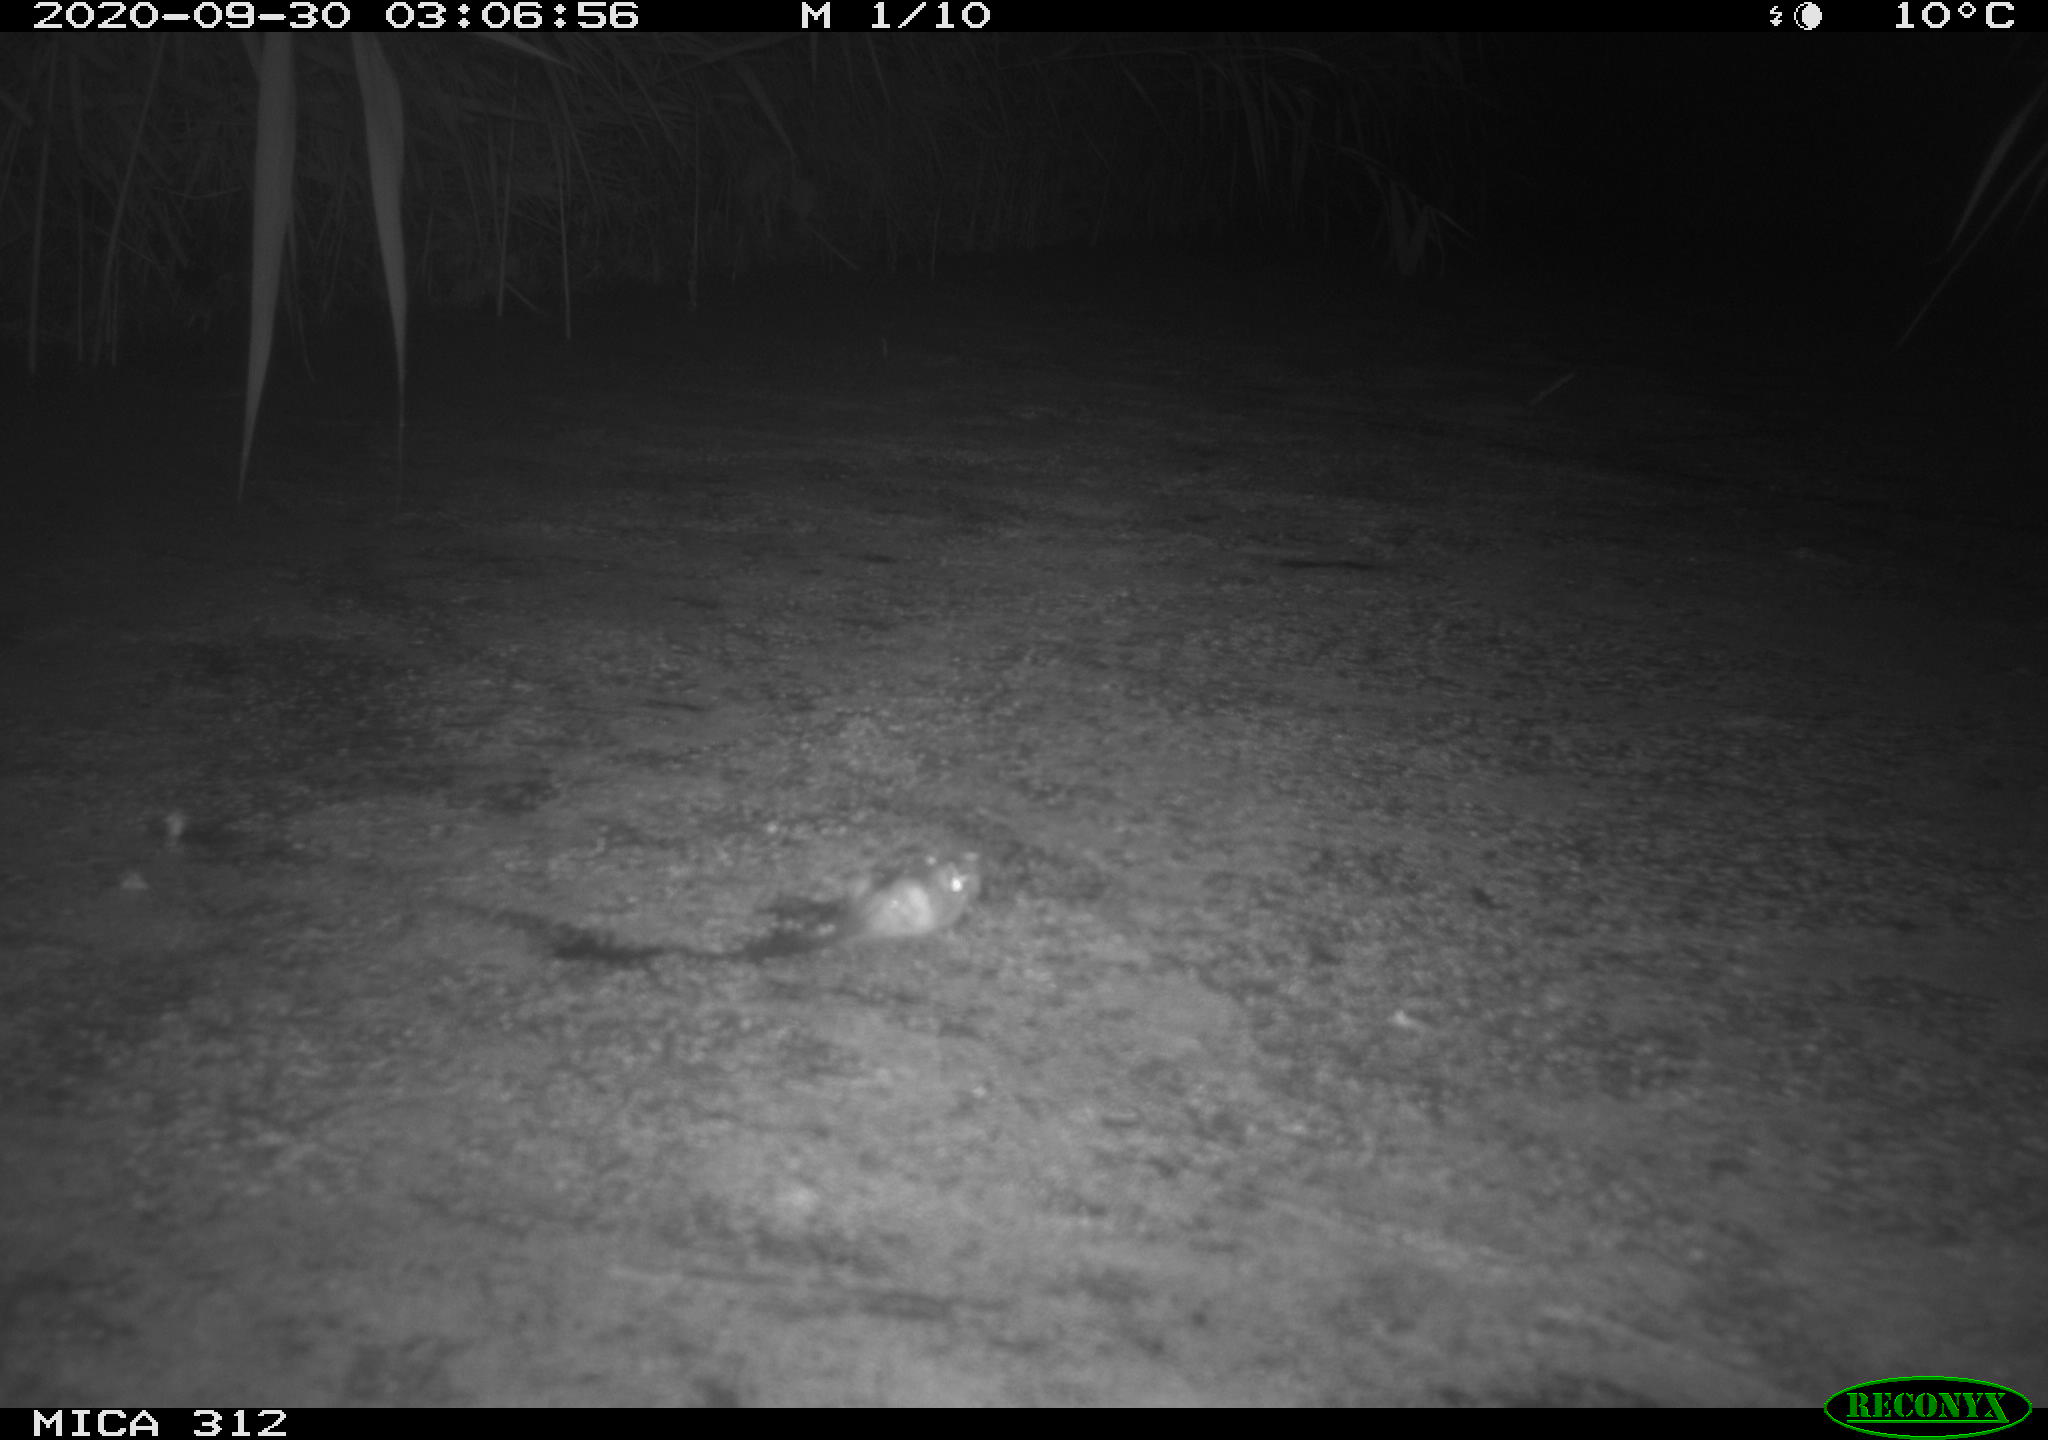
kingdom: Animalia
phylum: Chordata
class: Mammalia
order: Rodentia
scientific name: Rodentia
